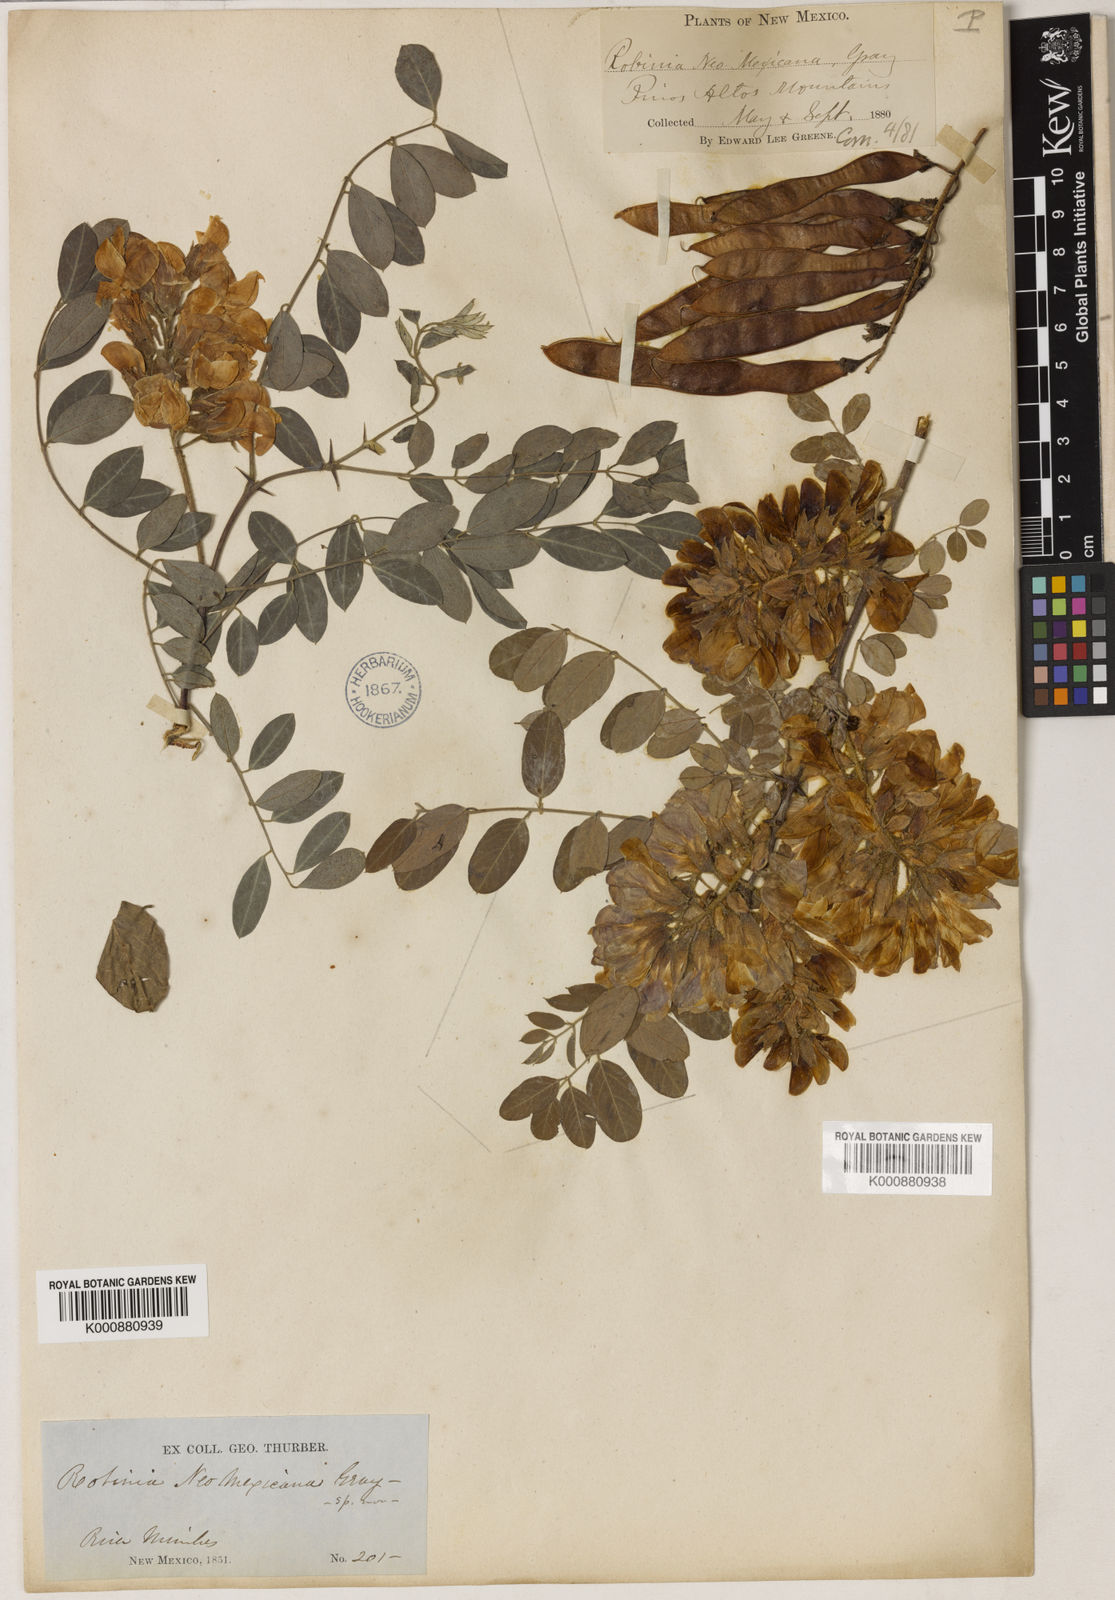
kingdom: Plantae
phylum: Tracheophyta
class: Magnoliopsida
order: Fabales
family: Fabaceae
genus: Robinia
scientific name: Robinia neomexicana
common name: New mexico locust
